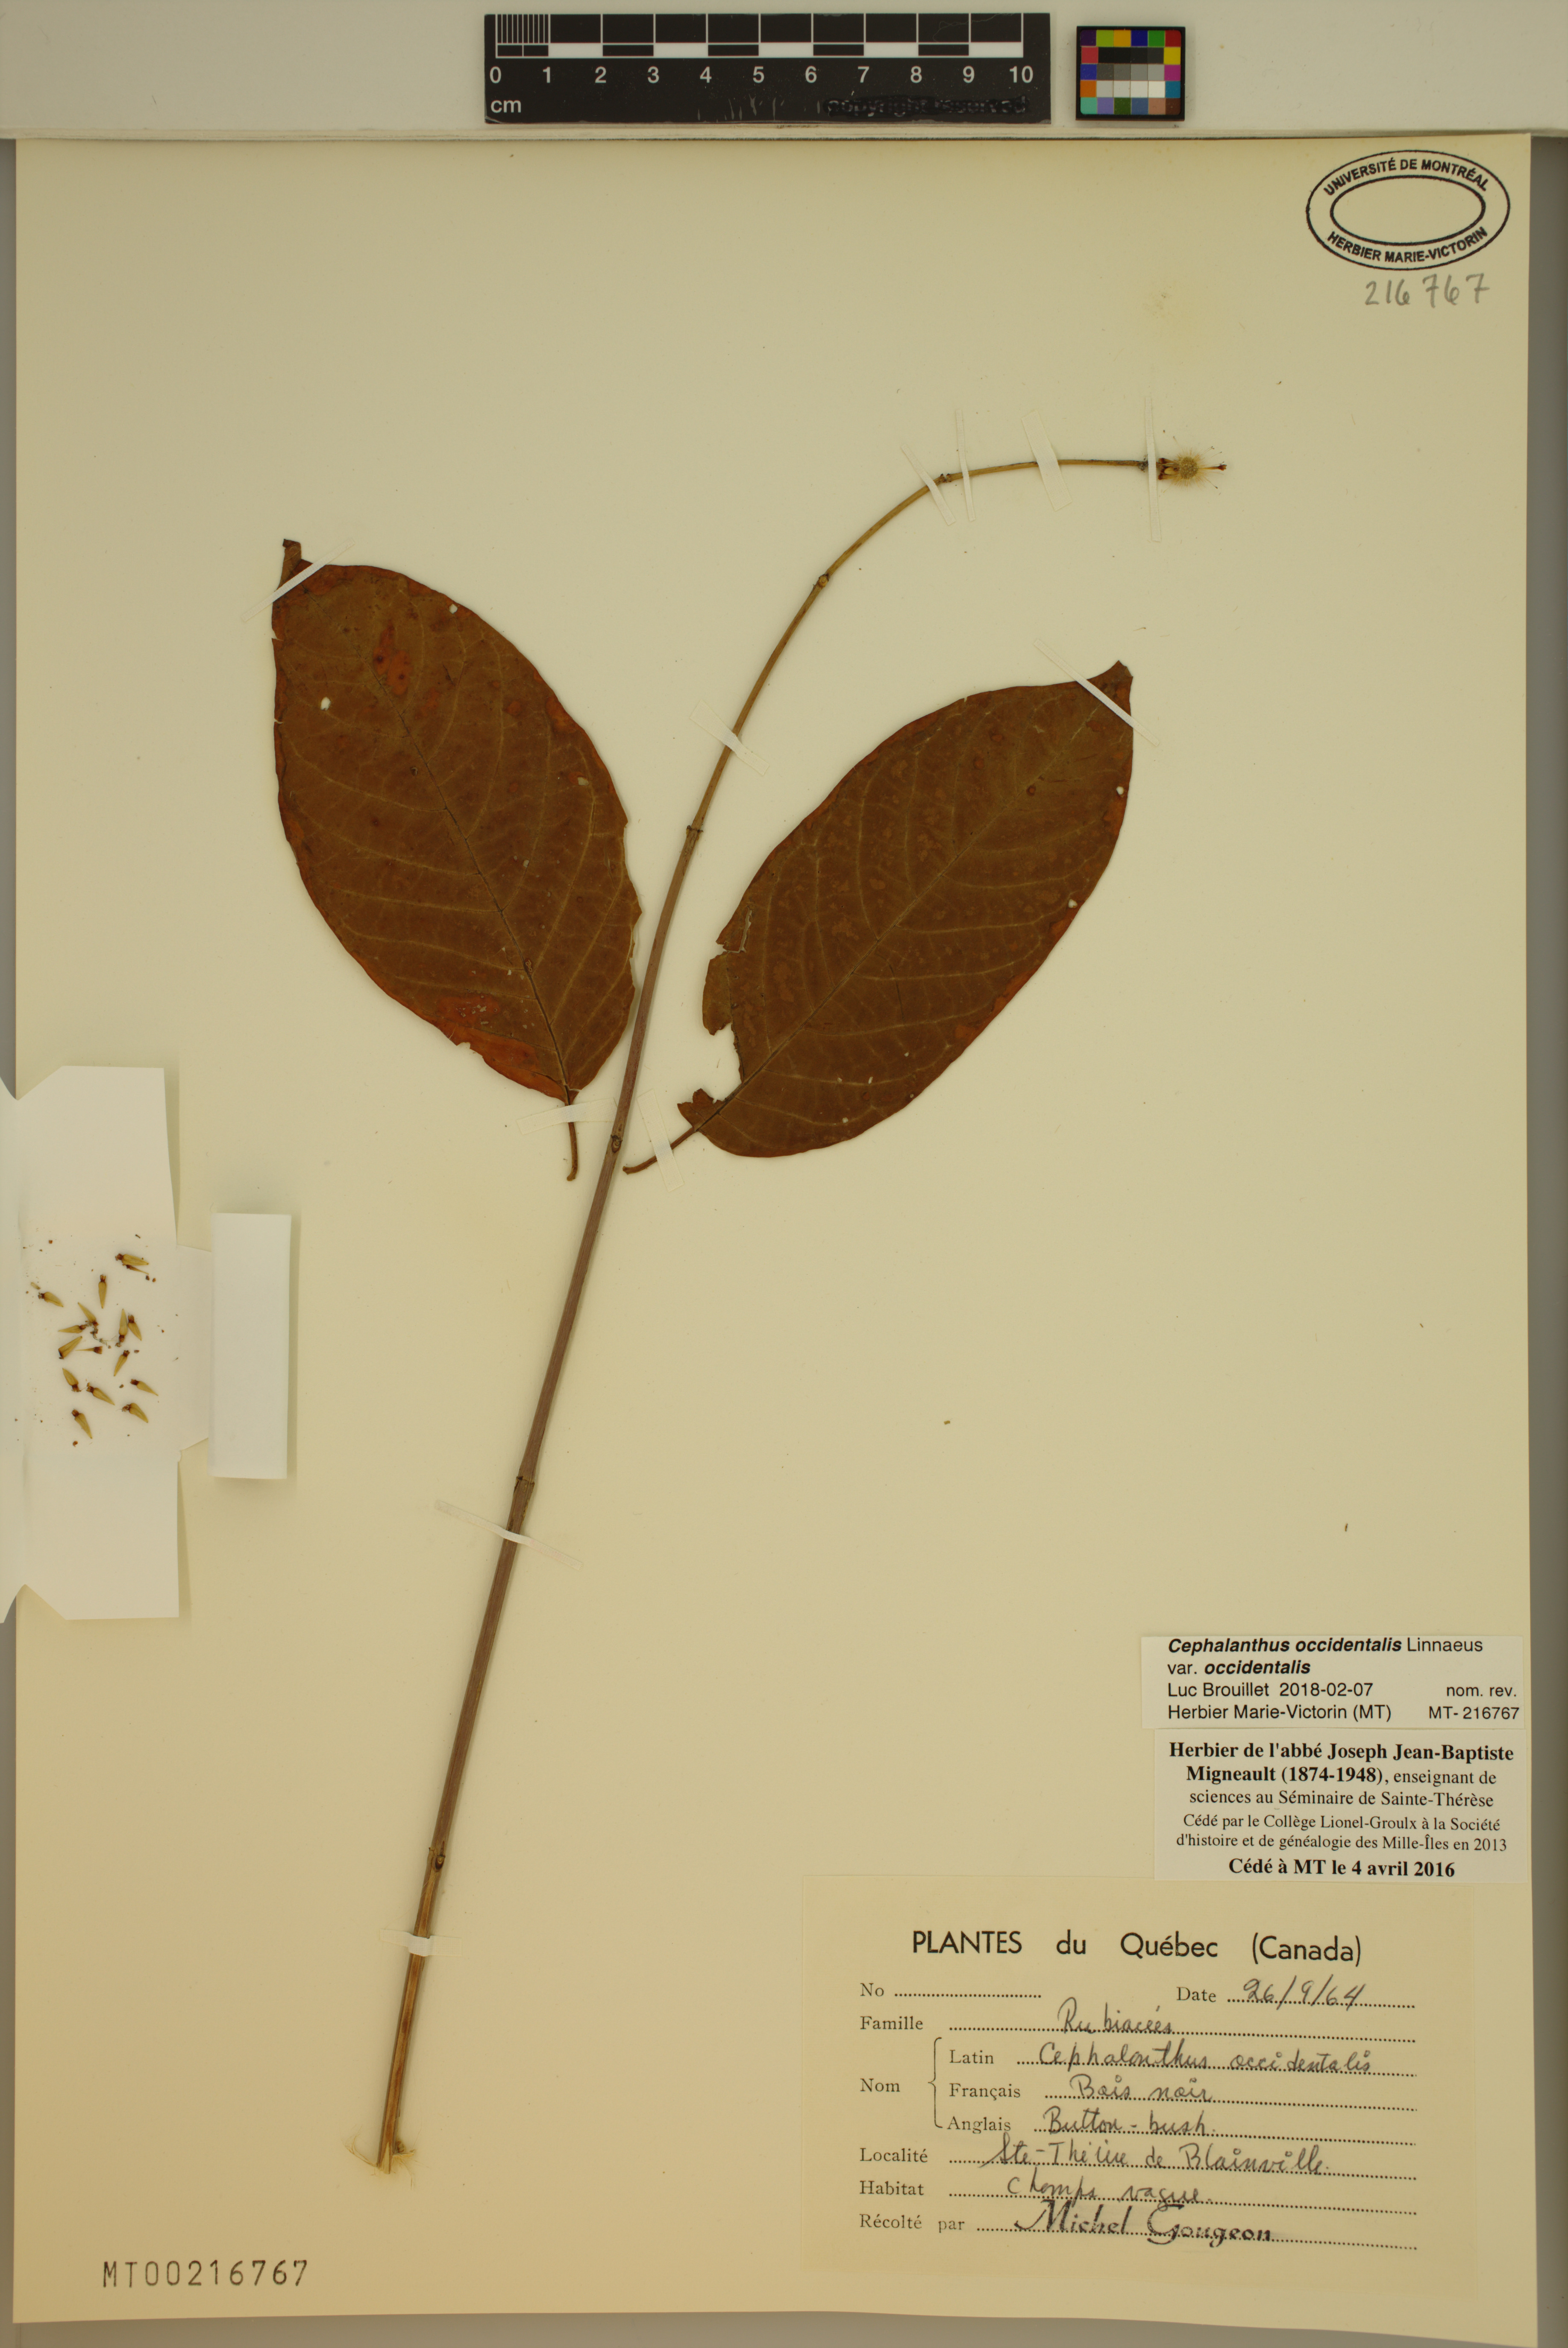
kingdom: Plantae
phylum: Tracheophyta
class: Magnoliopsida
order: Gentianales
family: Rubiaceae
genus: Cephalanthus
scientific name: Cephalanthus occidentalis
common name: Button-willow
